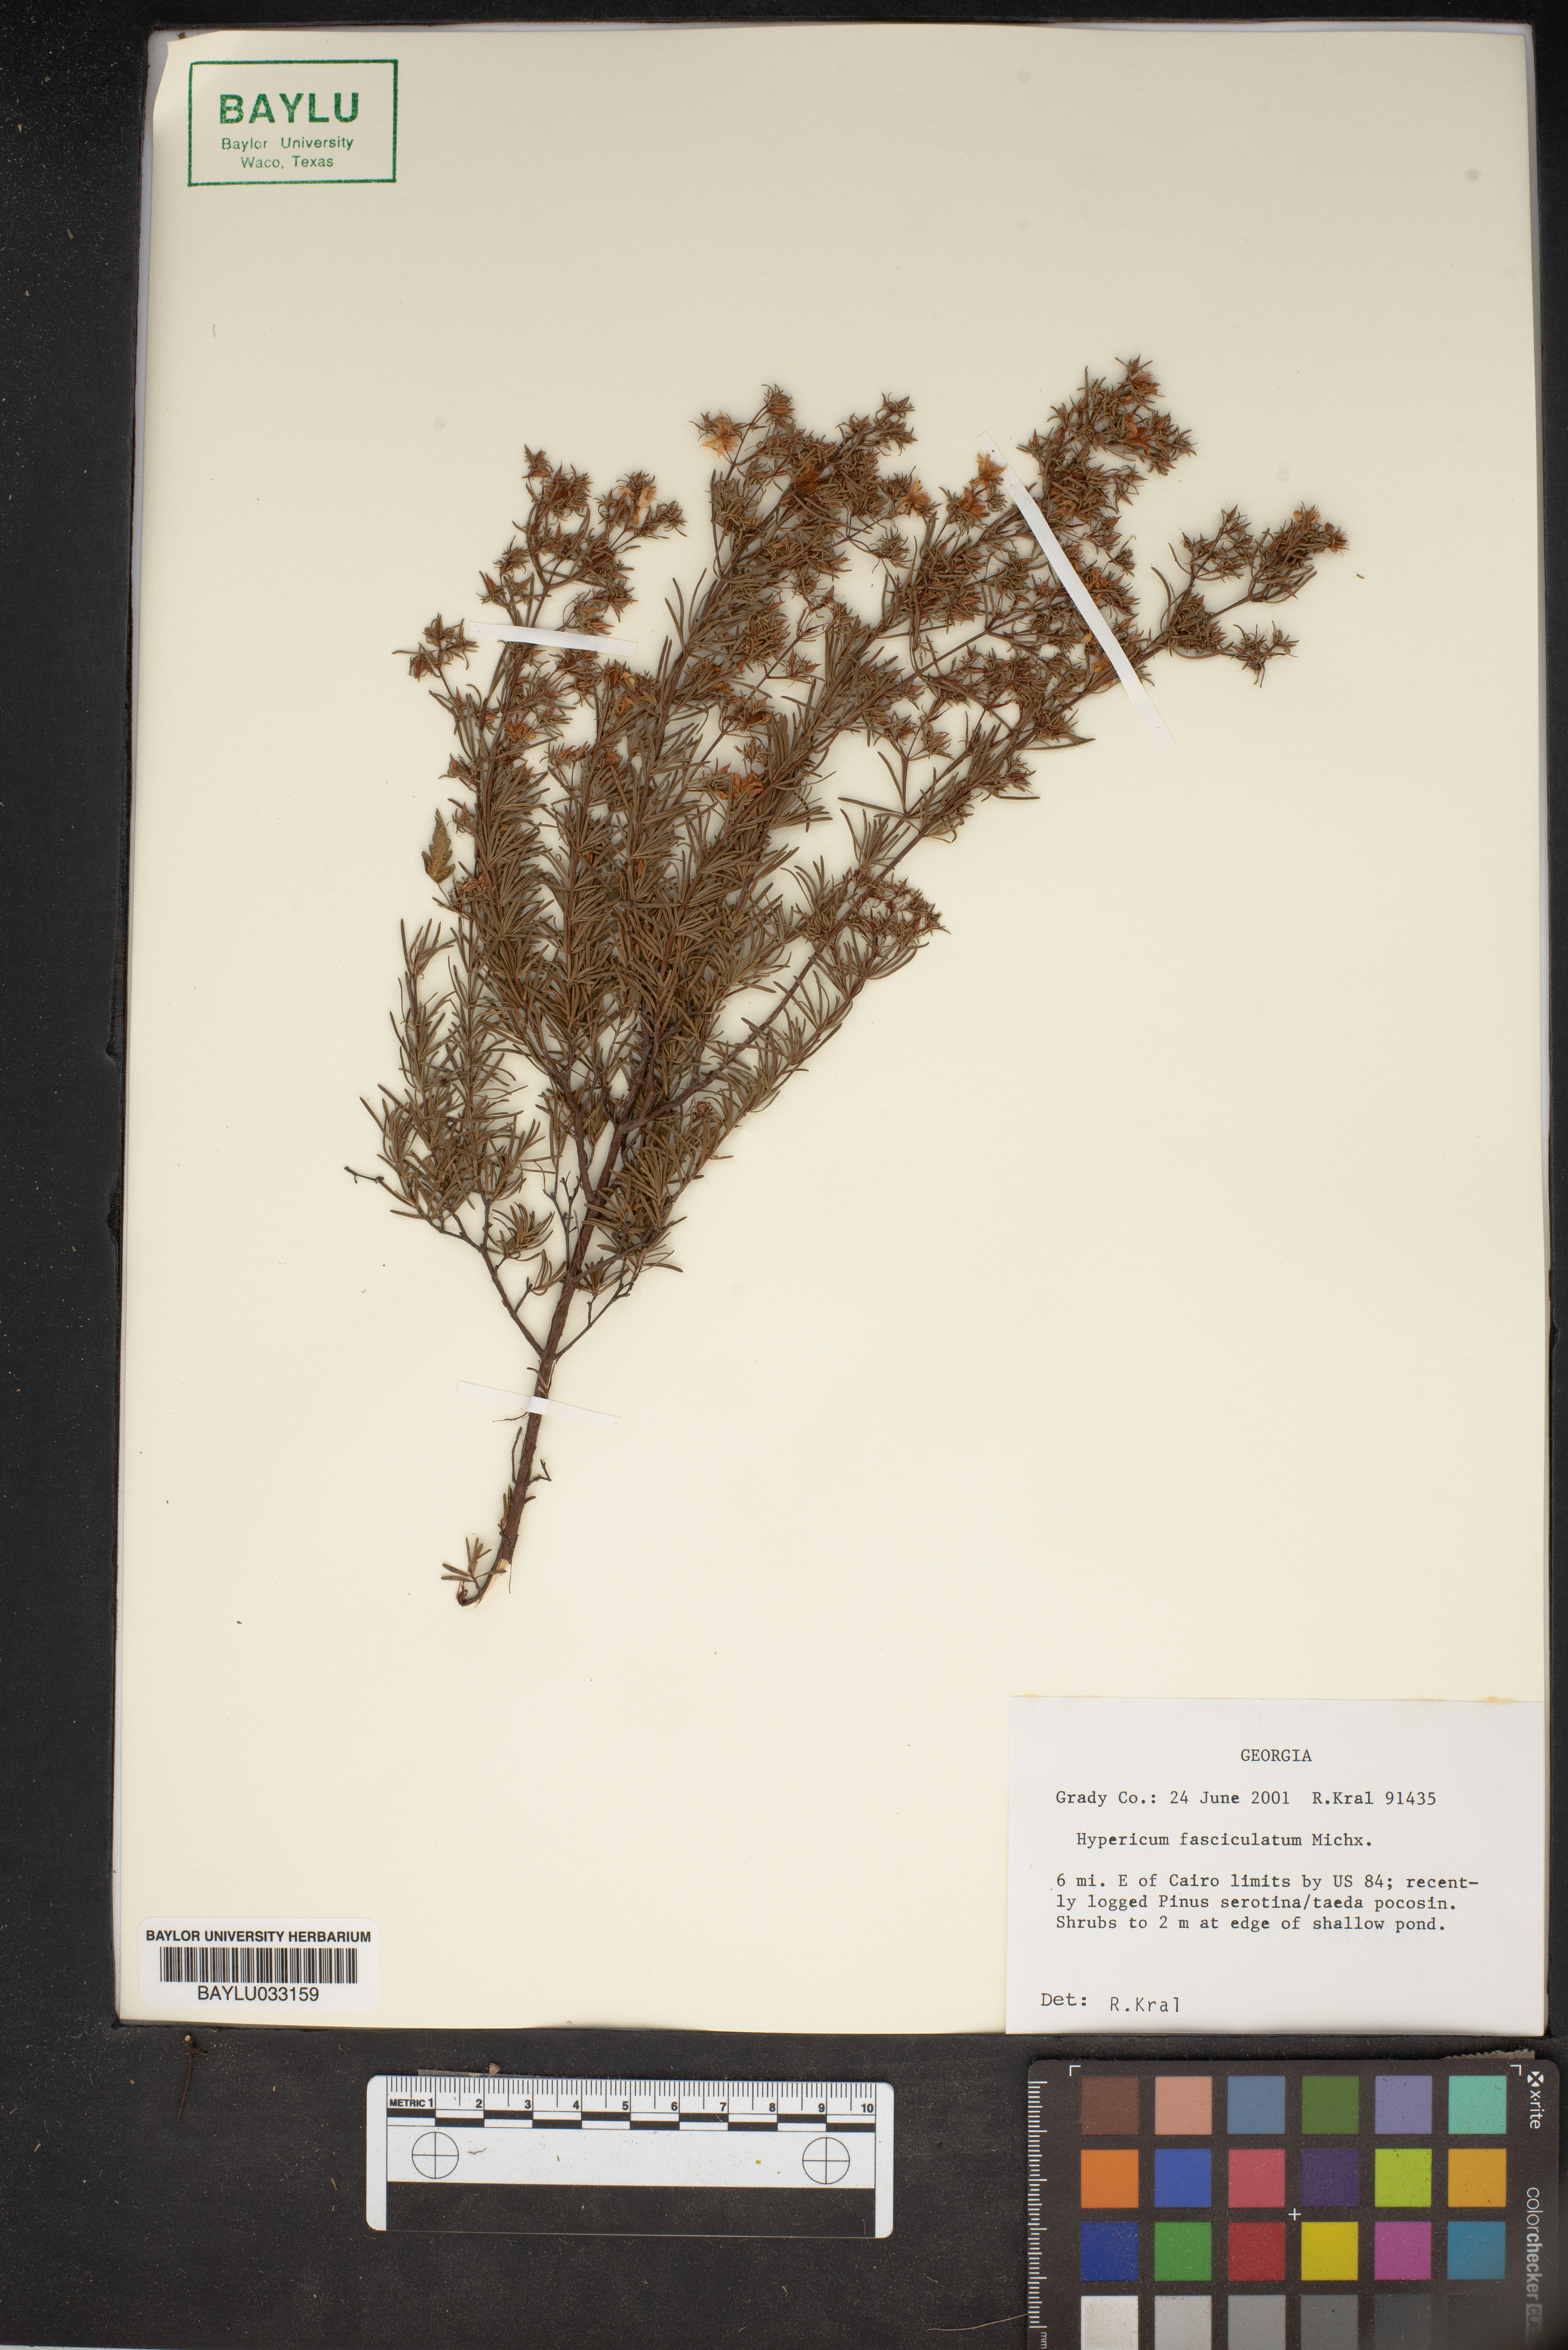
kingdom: Plantae
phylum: Tracheophyta
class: Magnoliopsida
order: Malpighiales
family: Hypericaceae
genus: Hypericum
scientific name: Hypericum fasciculatum
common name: Peelbark st. john's wort
